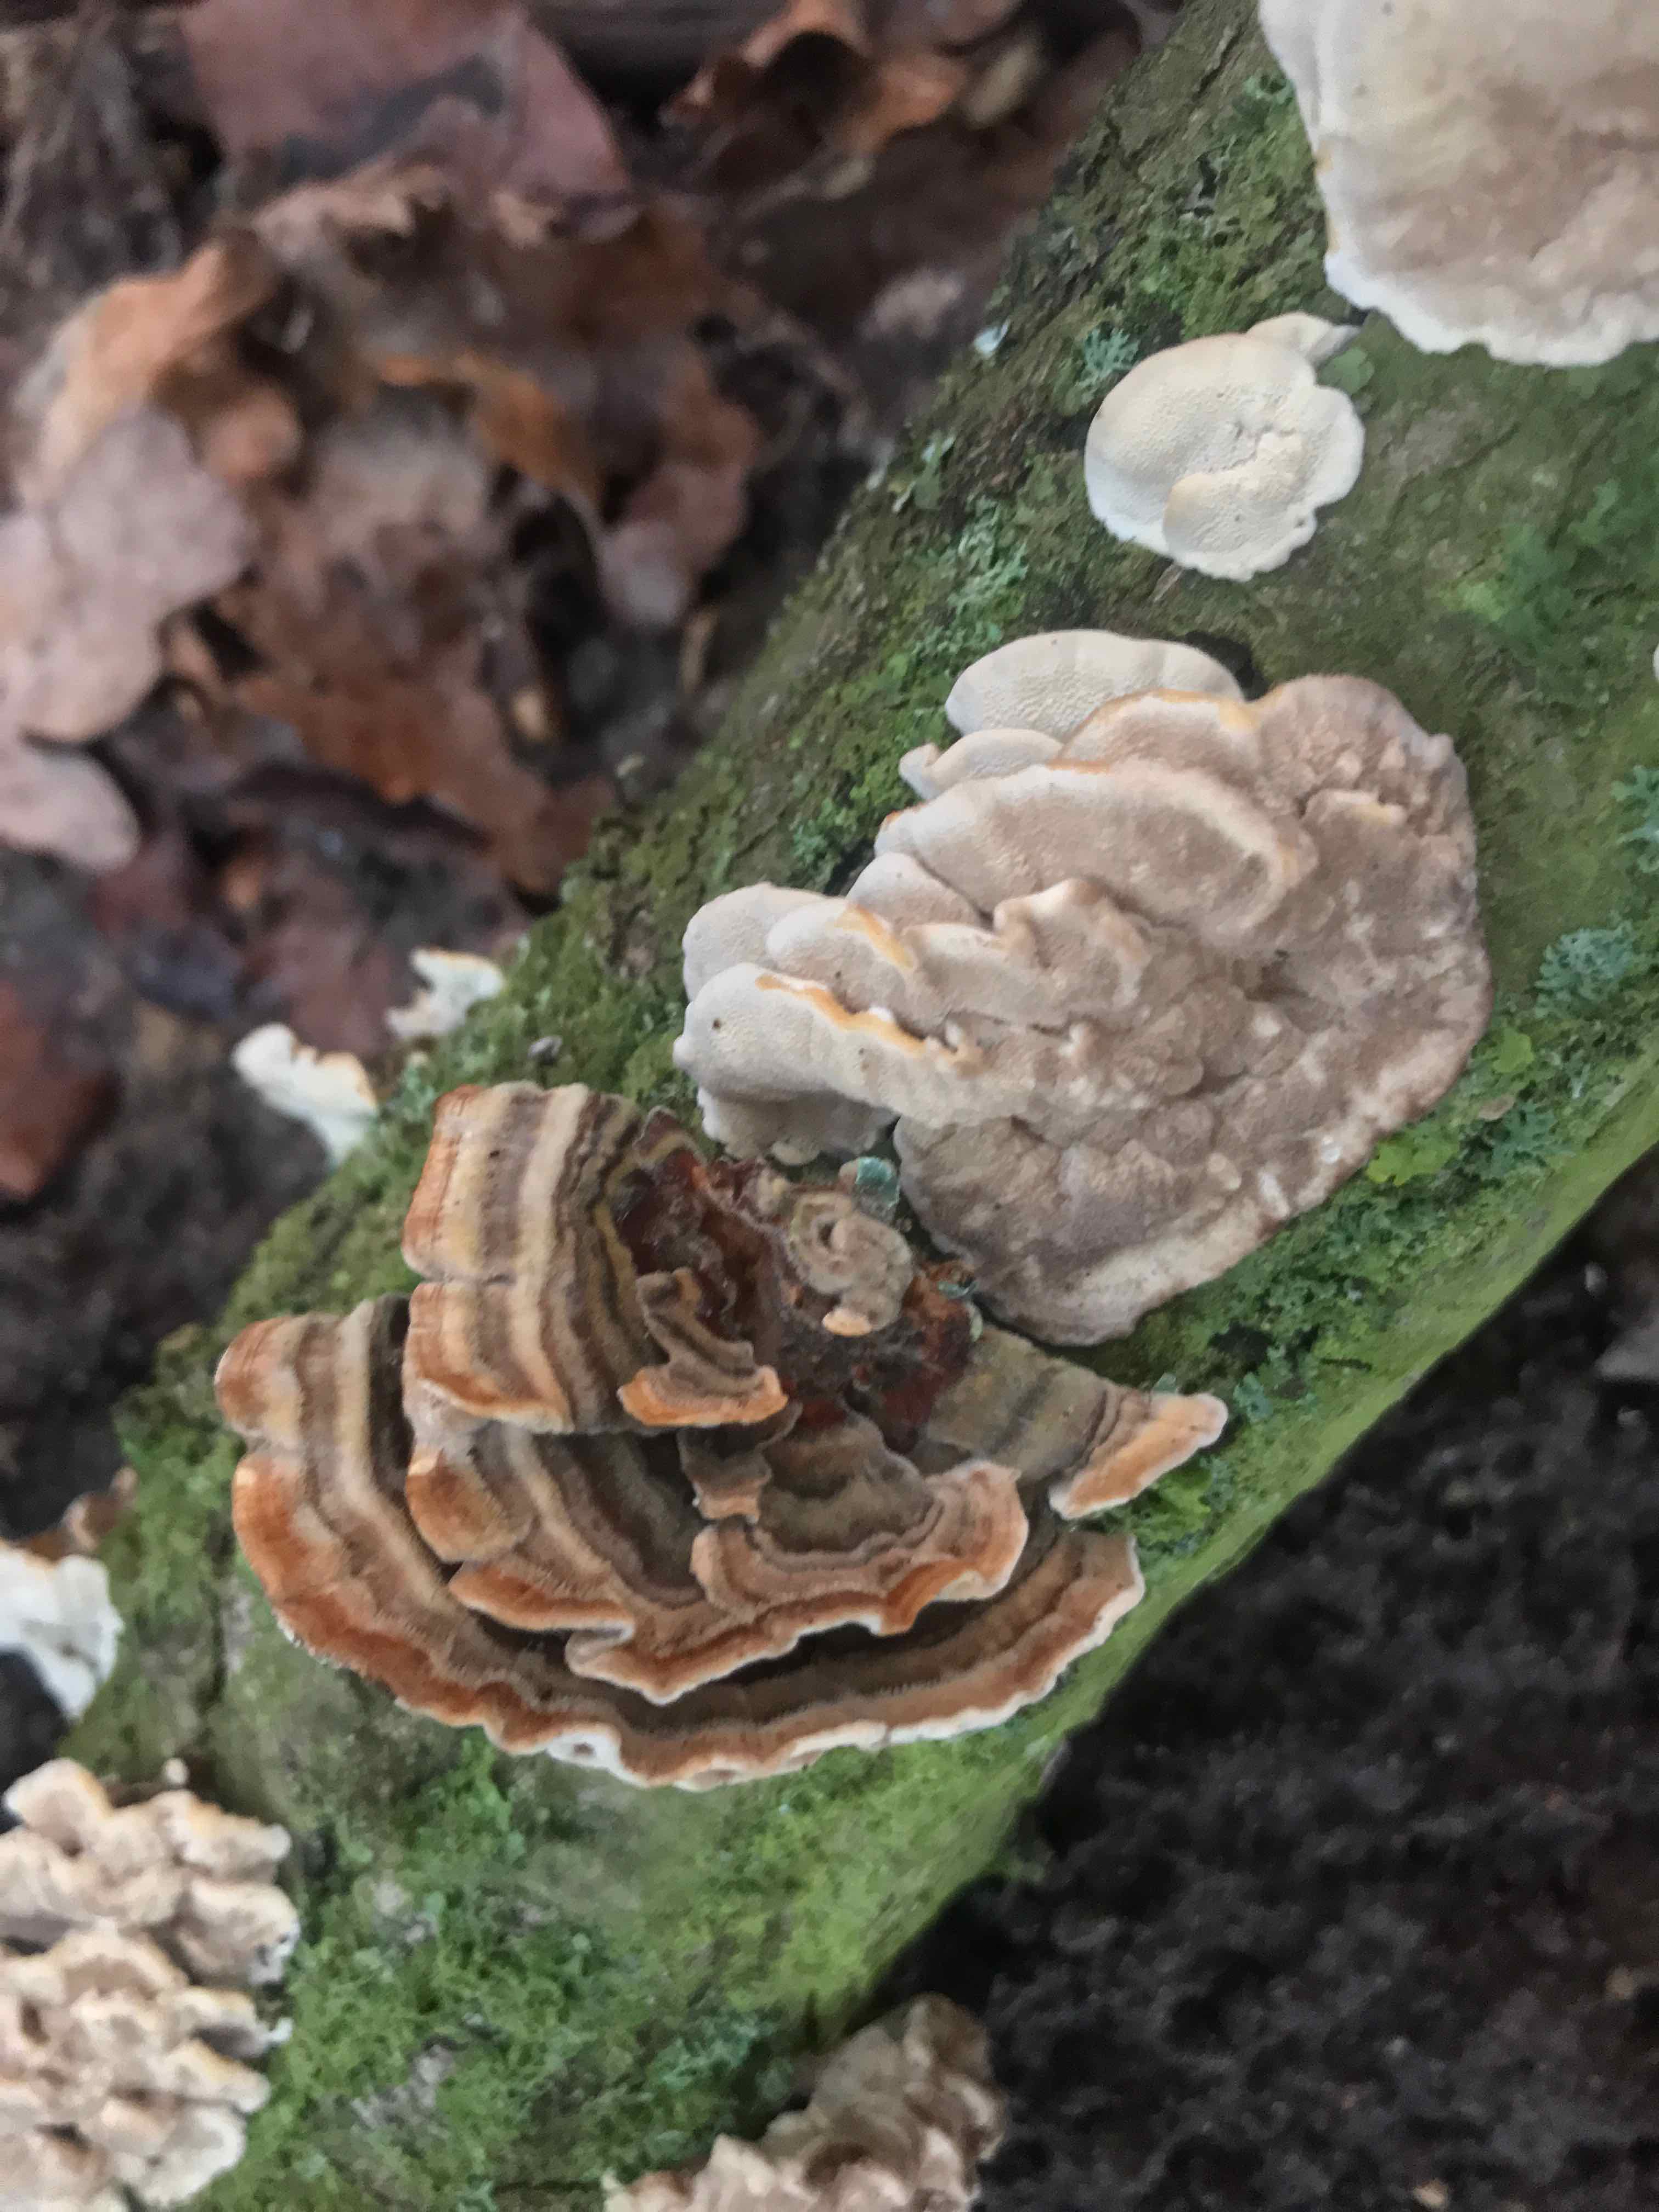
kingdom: Fungi
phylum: Basidiomycota
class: Agaricomycetes
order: Polyporales
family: Polyporaceae
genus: Trametes
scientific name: Trametes versicolor
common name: broget læderporesvamp
